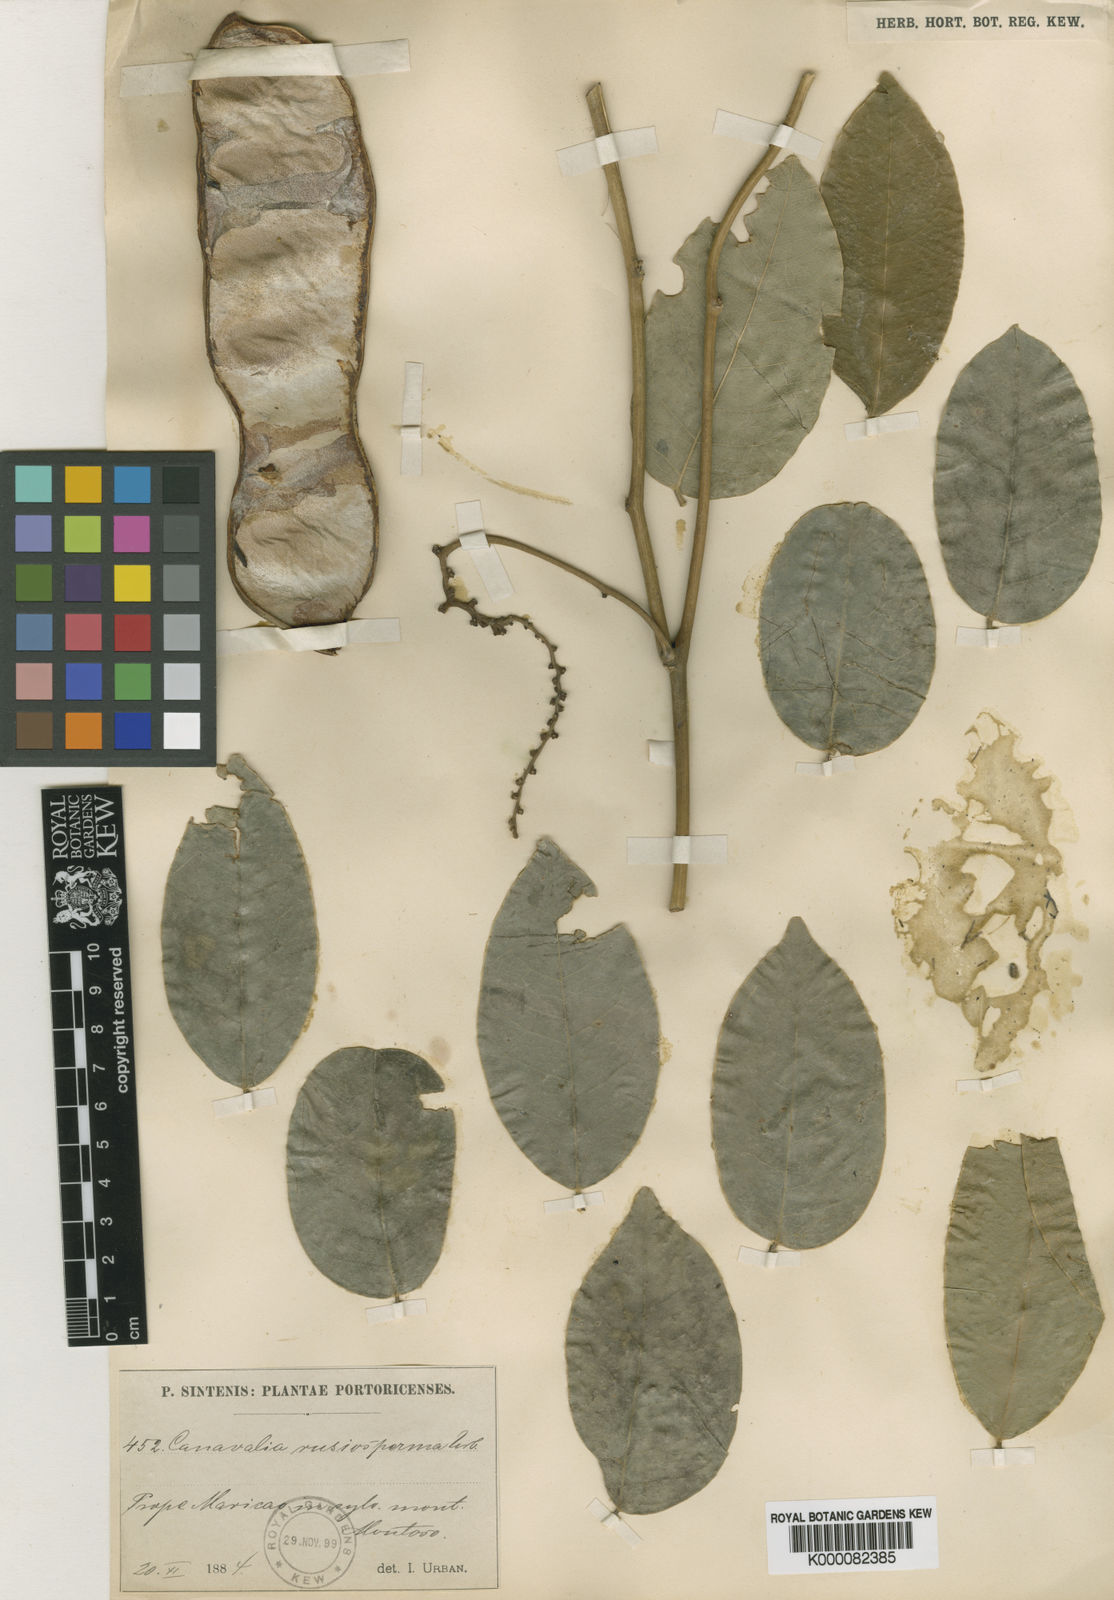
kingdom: Plantae
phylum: Tracheophyta
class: Magnoliopsida
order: Fabales
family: Fabaceae
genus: Canavalia
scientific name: Canavalia nitida
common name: Cathie's-bean
